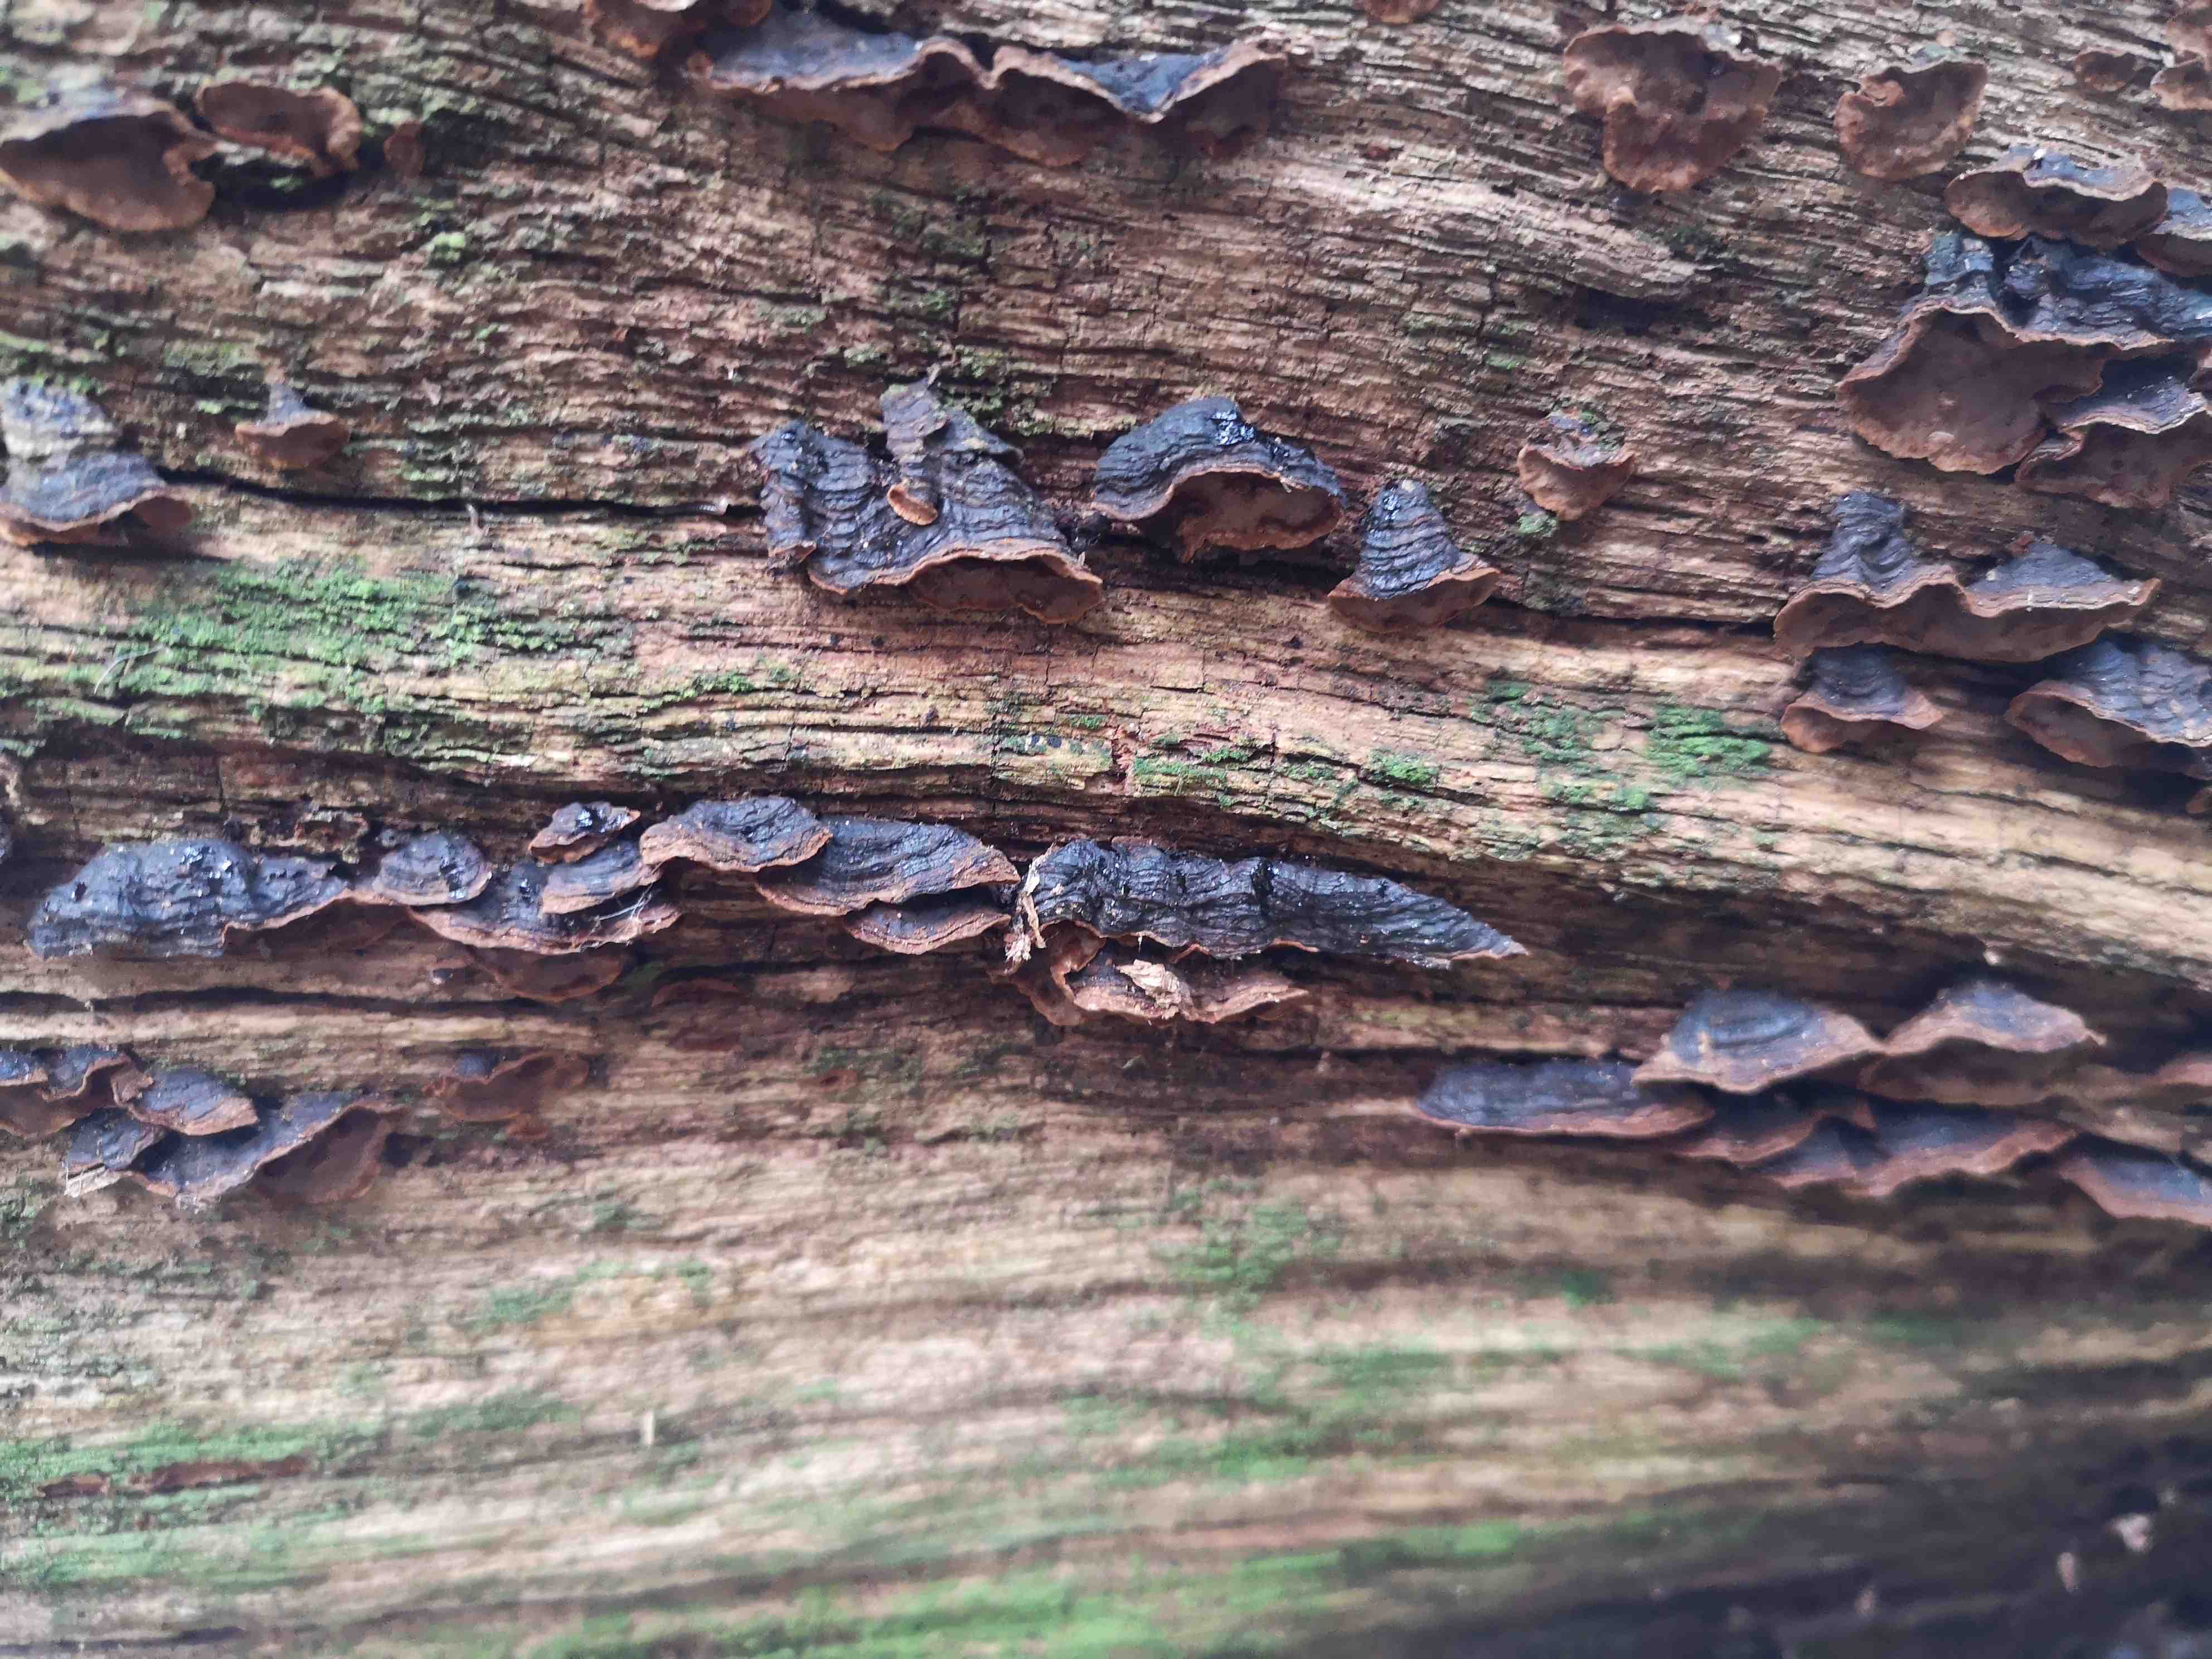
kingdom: Fungi
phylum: Basidiomycota
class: Agaricomycetes
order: Hymenochaetales
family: Hymenochaetaceae
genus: Hymenochaete
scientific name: Hymenochaete rubiginosa
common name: stiv ruslædersvamp
